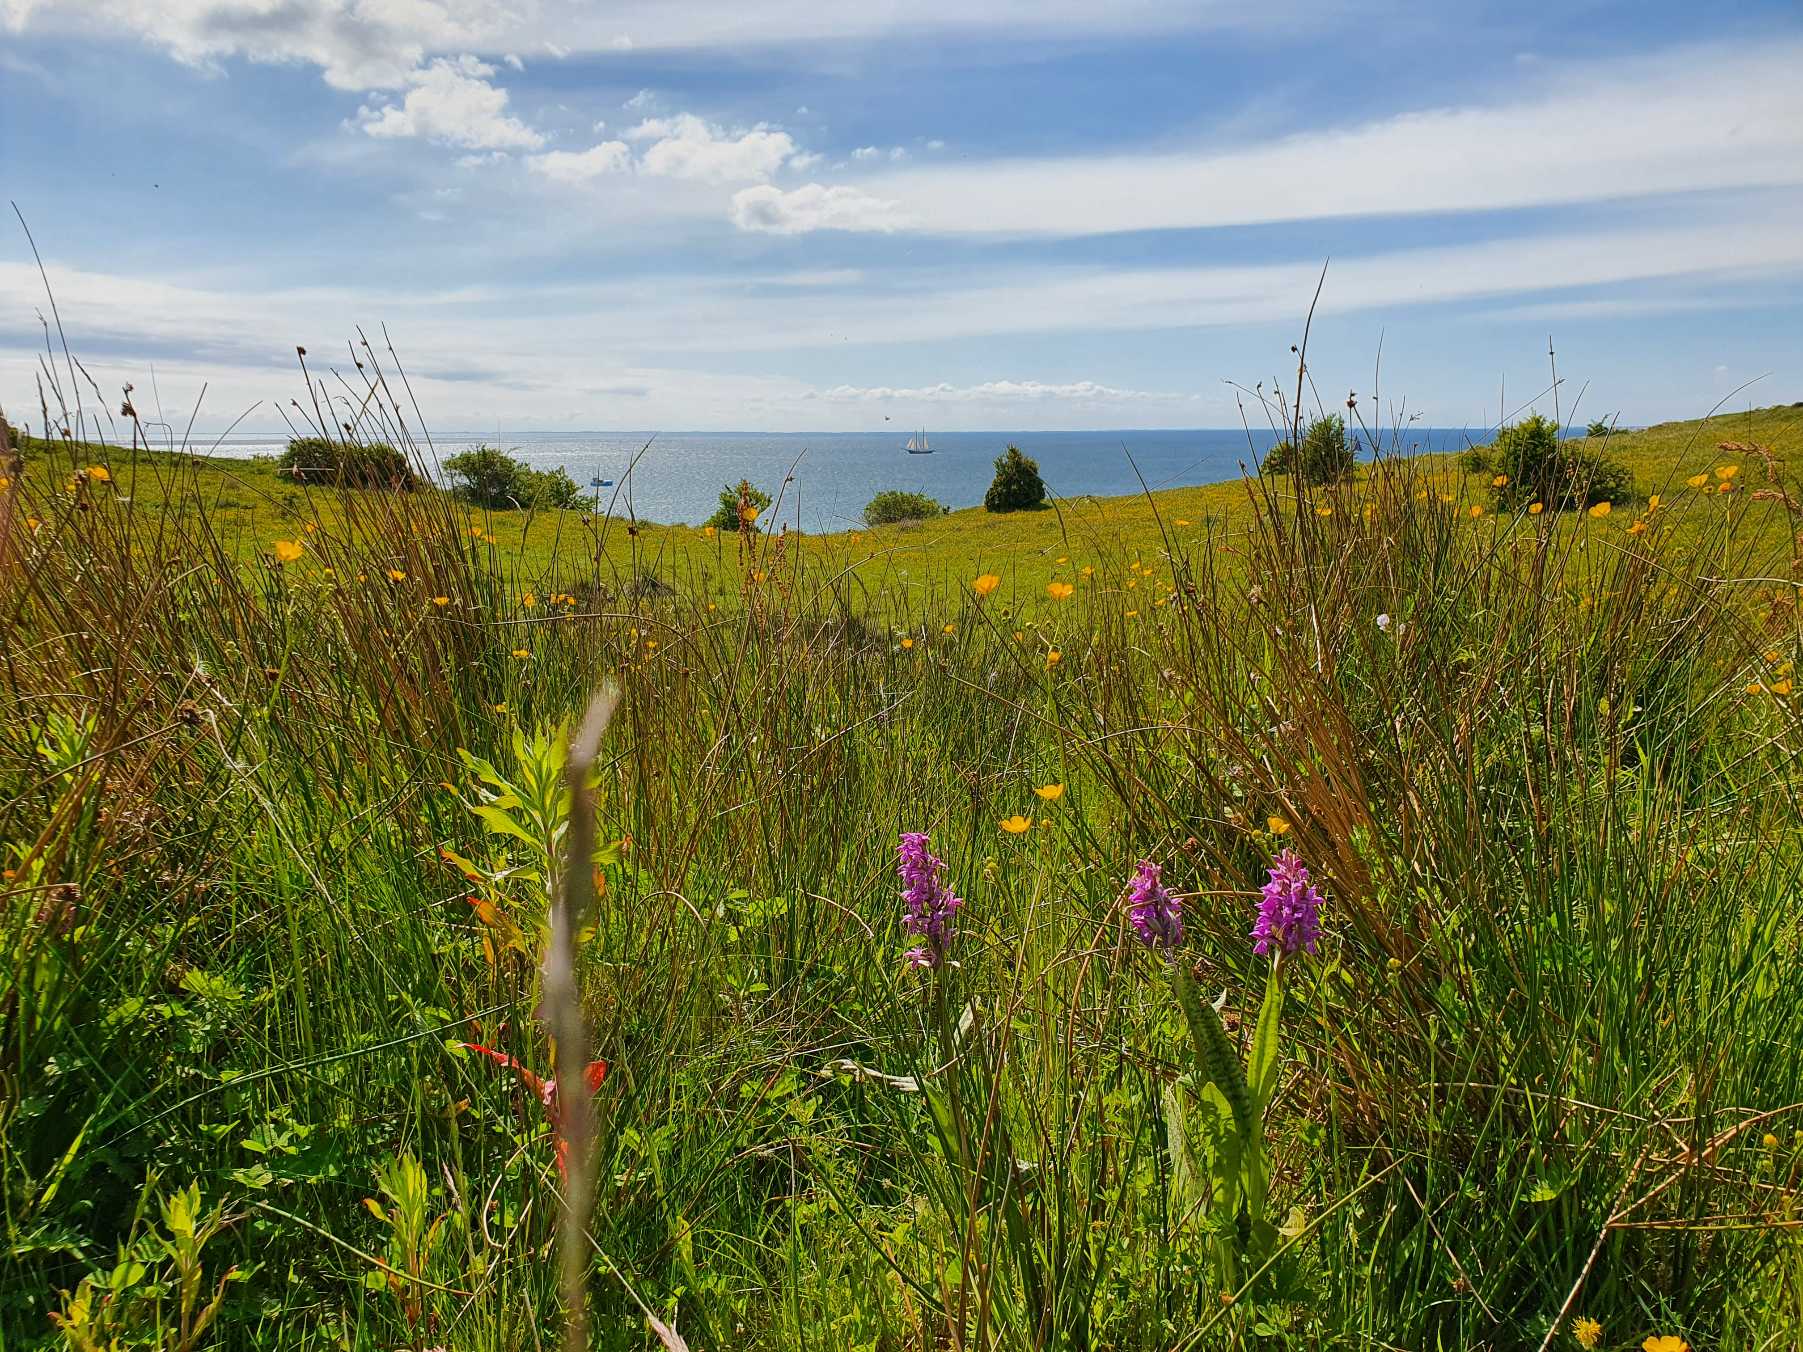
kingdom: Plantae
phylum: Tracheophyta
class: Liliopsida
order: Asparagales
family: Orchidaceae
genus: Dactylorhiza
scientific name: Dactylorhiza majalis
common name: Maj-gøgeurt
